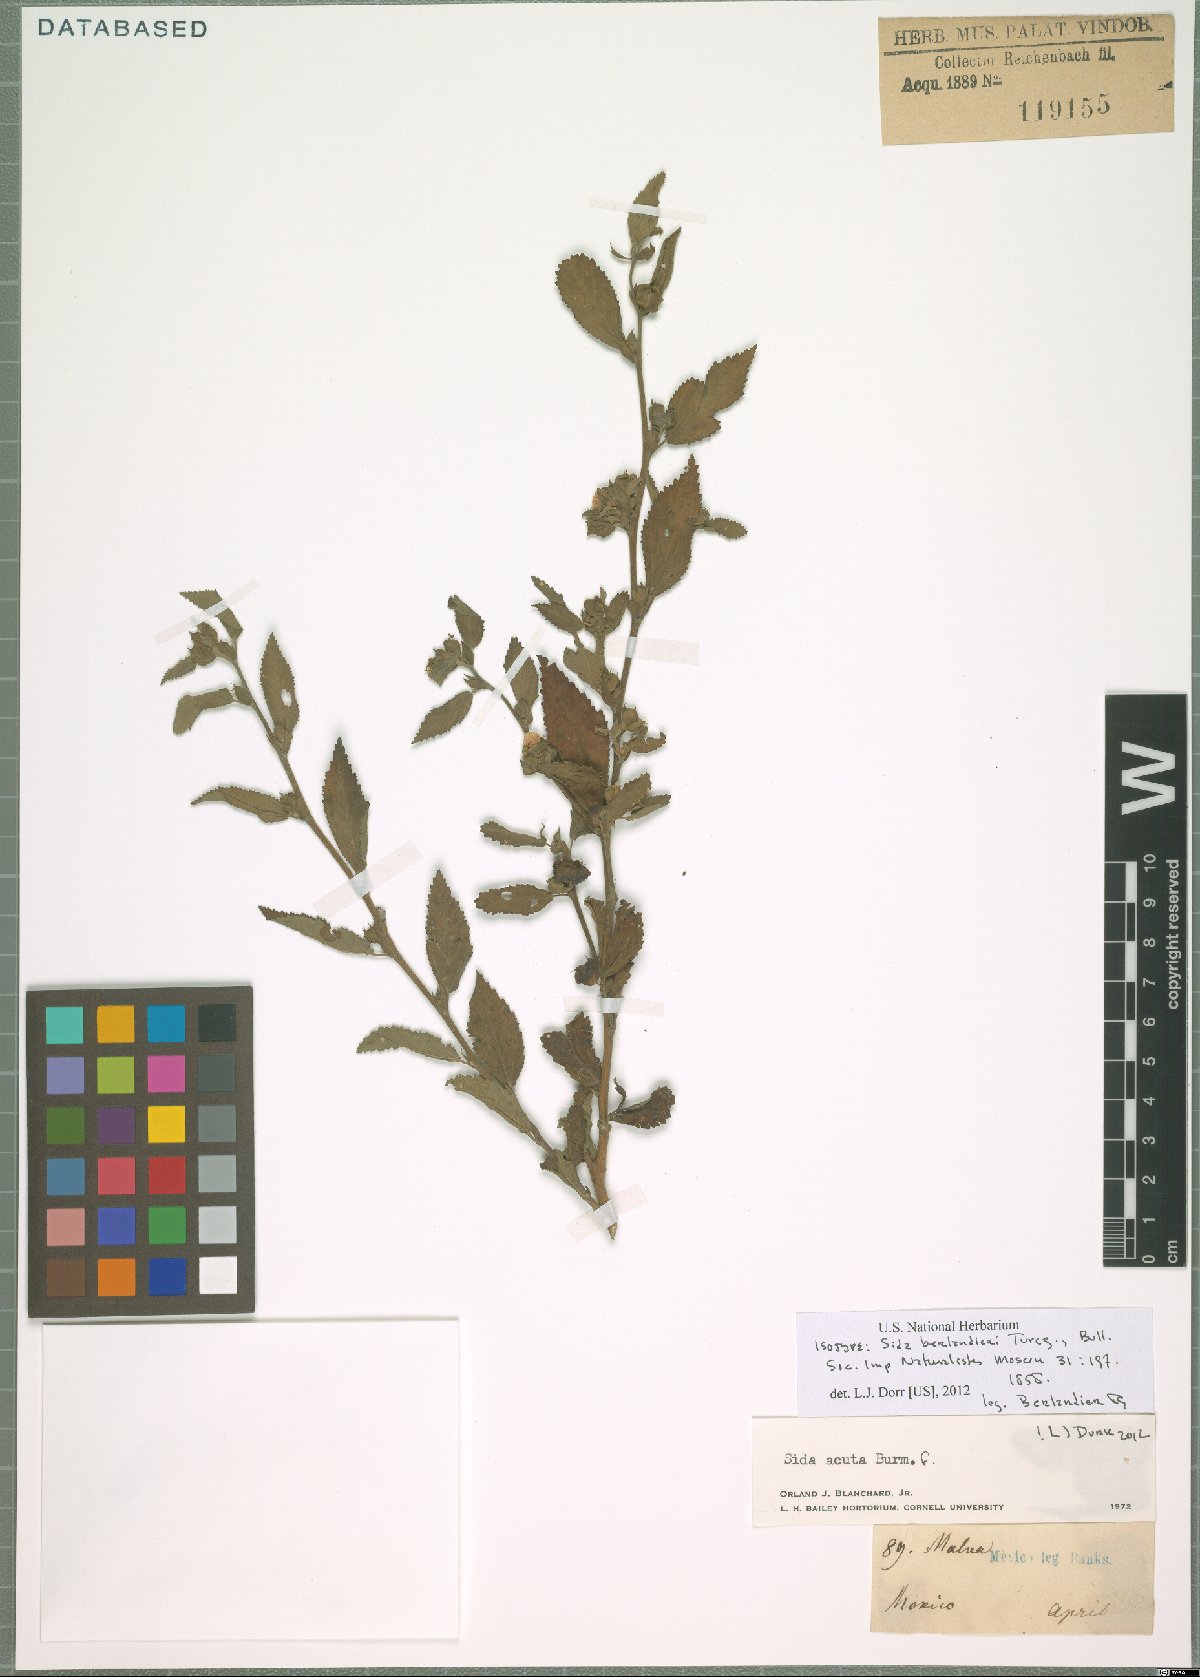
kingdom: Plantae
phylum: Tracheophyta
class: Magnoliopsida
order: Malvales
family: Malvaceae
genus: Sida
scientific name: Sida acuta
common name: Common wireweed
